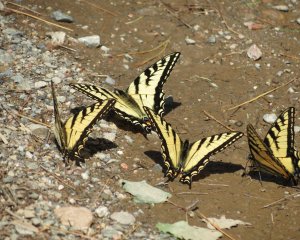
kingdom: Animalia
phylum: Arthropoda
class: Insecta
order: Lepidoptera
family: Papilionidae
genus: Pterourus
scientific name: Pterourus canadensis
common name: Canadian Tiger Swallowtail
